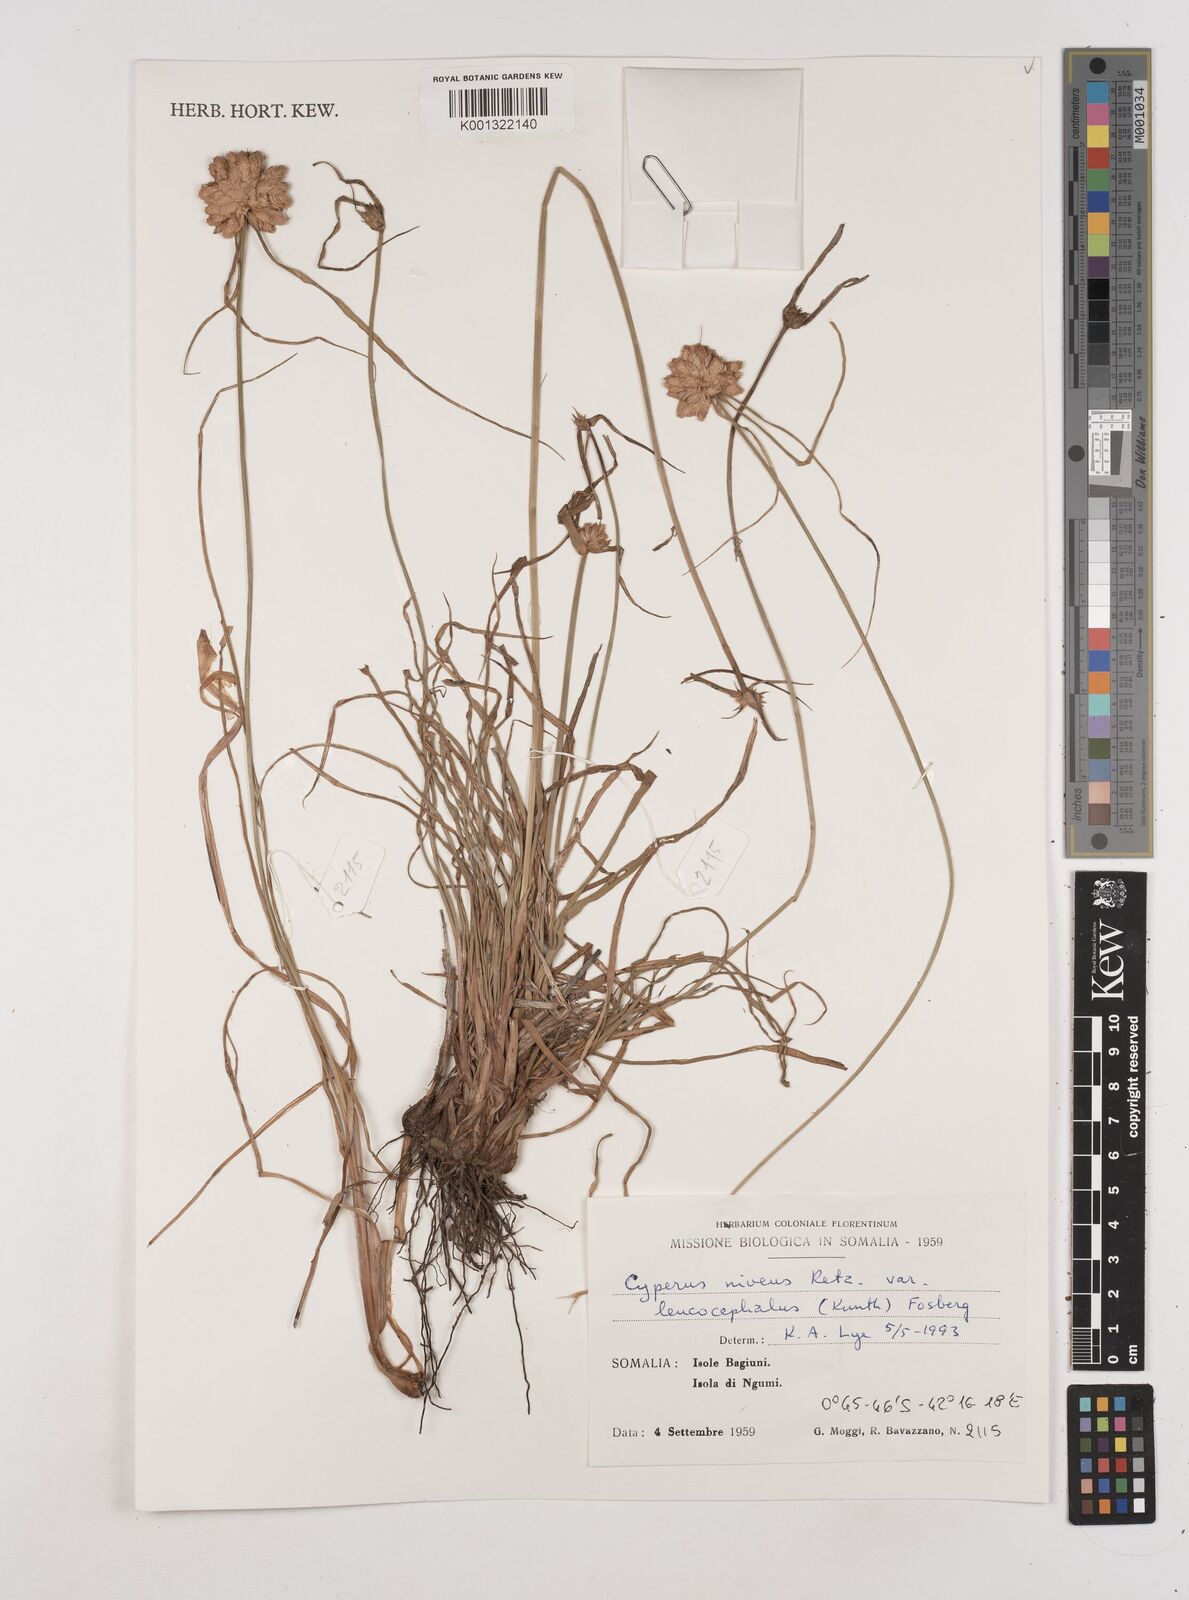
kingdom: Plantae
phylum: Tracheophyta
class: Liliopsida
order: Poales
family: Cyperaceae
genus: Cyperus
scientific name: Cyperus niveus
